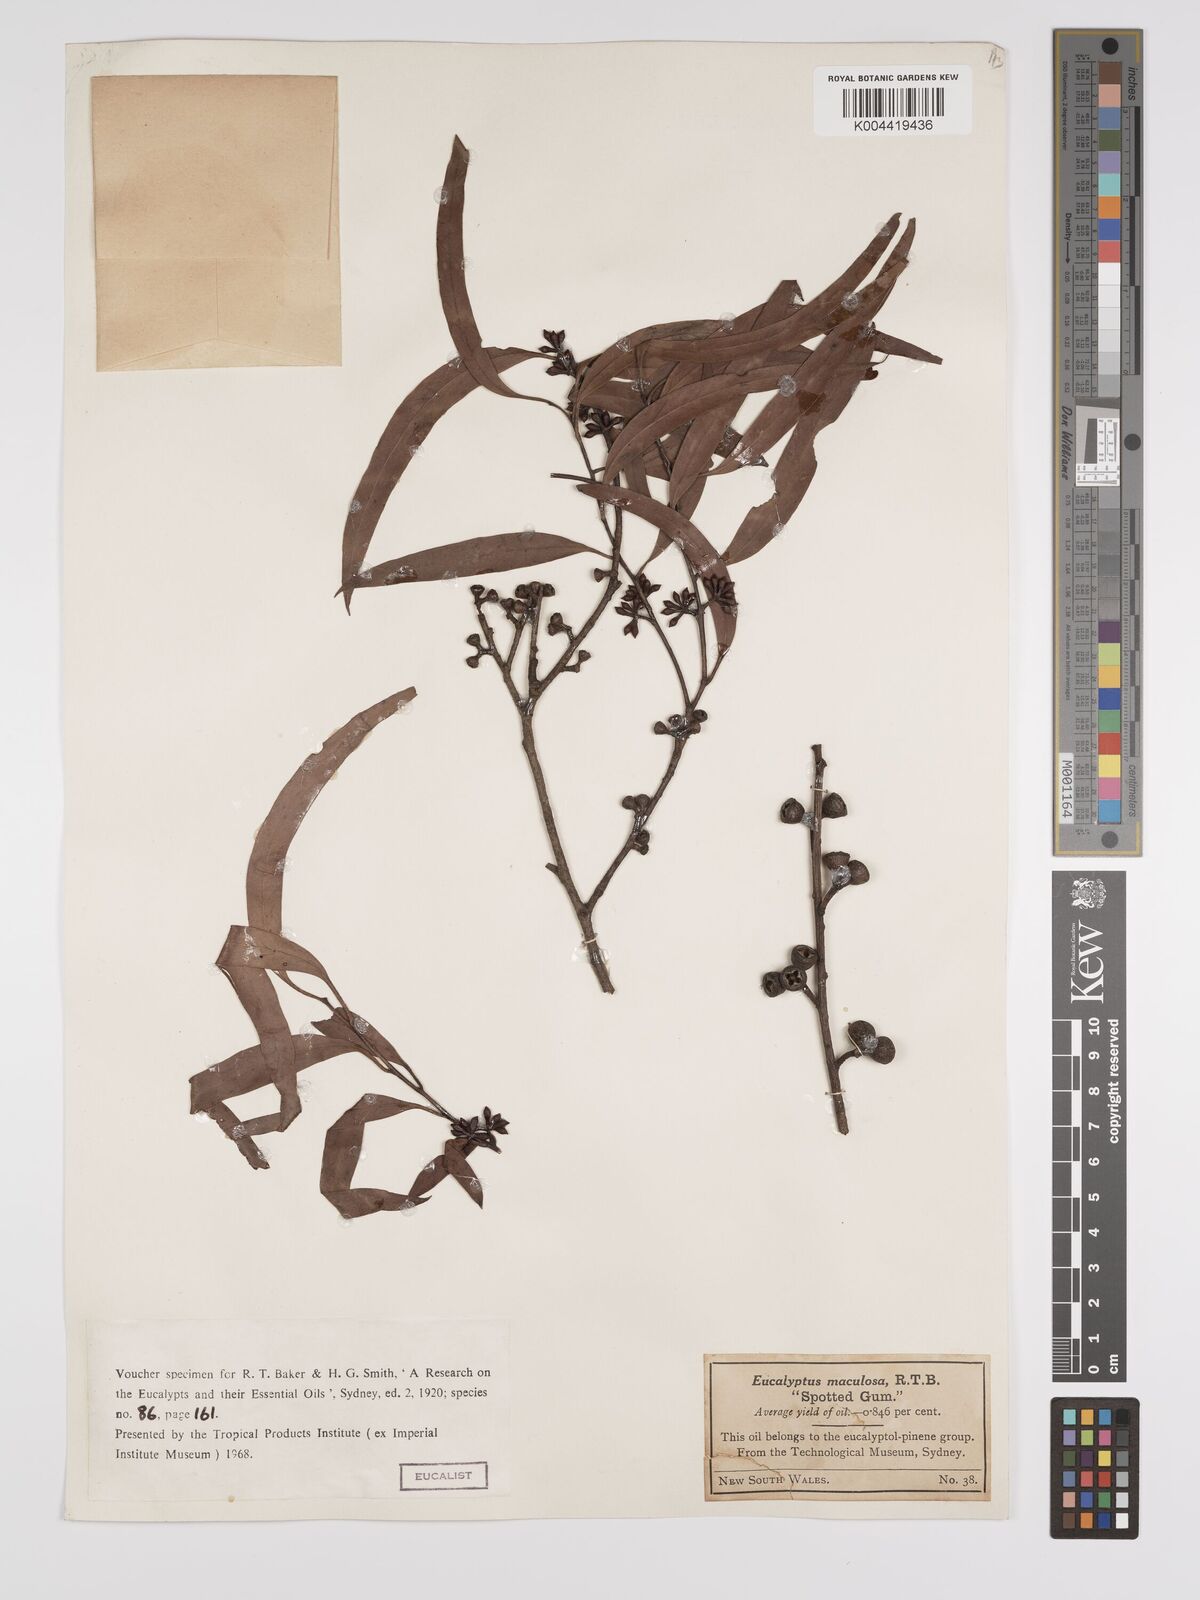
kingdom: Plantae
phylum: Tracheophyta
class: Magnoliopsida
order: Myrtales
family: Myrtaceae
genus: Eucalyptus
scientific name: Eucalyptus mannifera
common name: Manna gum
